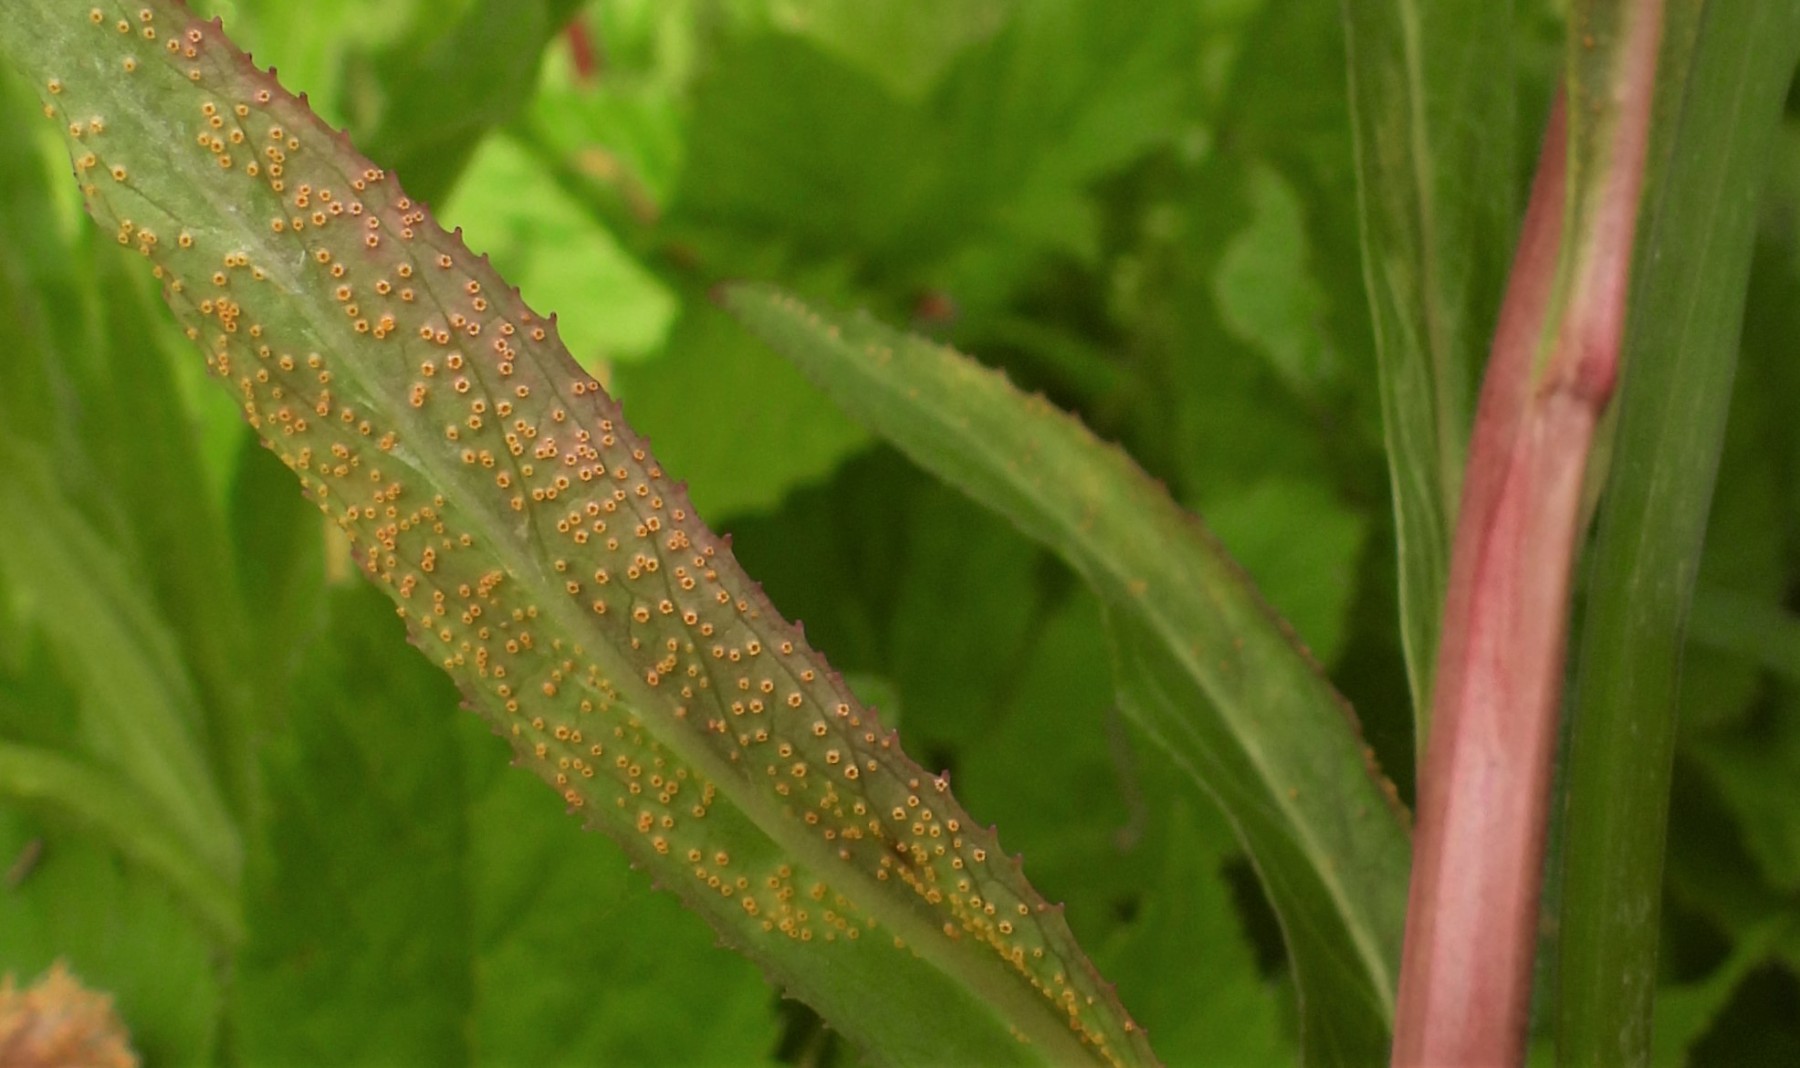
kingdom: Fungi
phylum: Basidiomycota
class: Pucciniomycetes
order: Pucciniales
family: Pucciniaceae
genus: Puccinia
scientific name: Puccinia pulverulenta
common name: dueurt-tvecellerust
